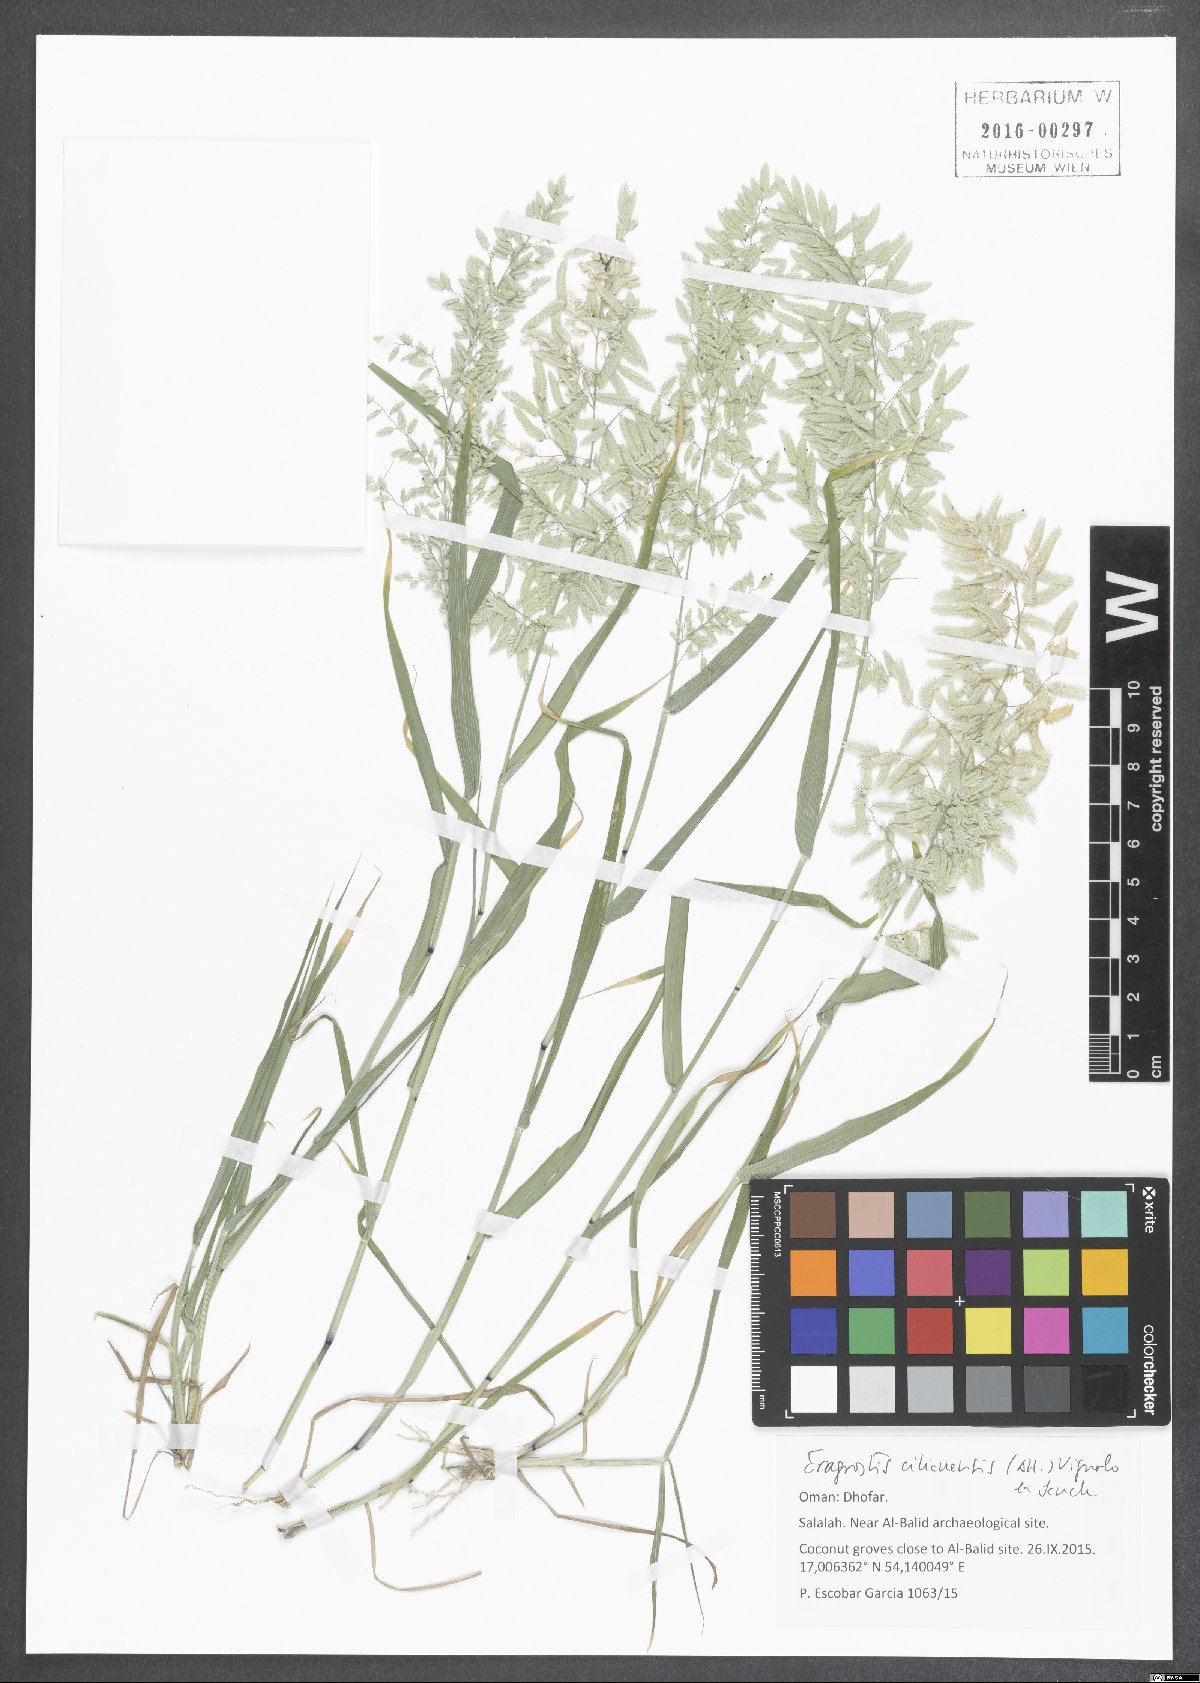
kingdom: Plantae
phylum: Tracheophyta
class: Liliopsida
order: Poales
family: Poaceae
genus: Eragrostis
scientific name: Eragrostis cilianensis
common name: Stinkgrass
